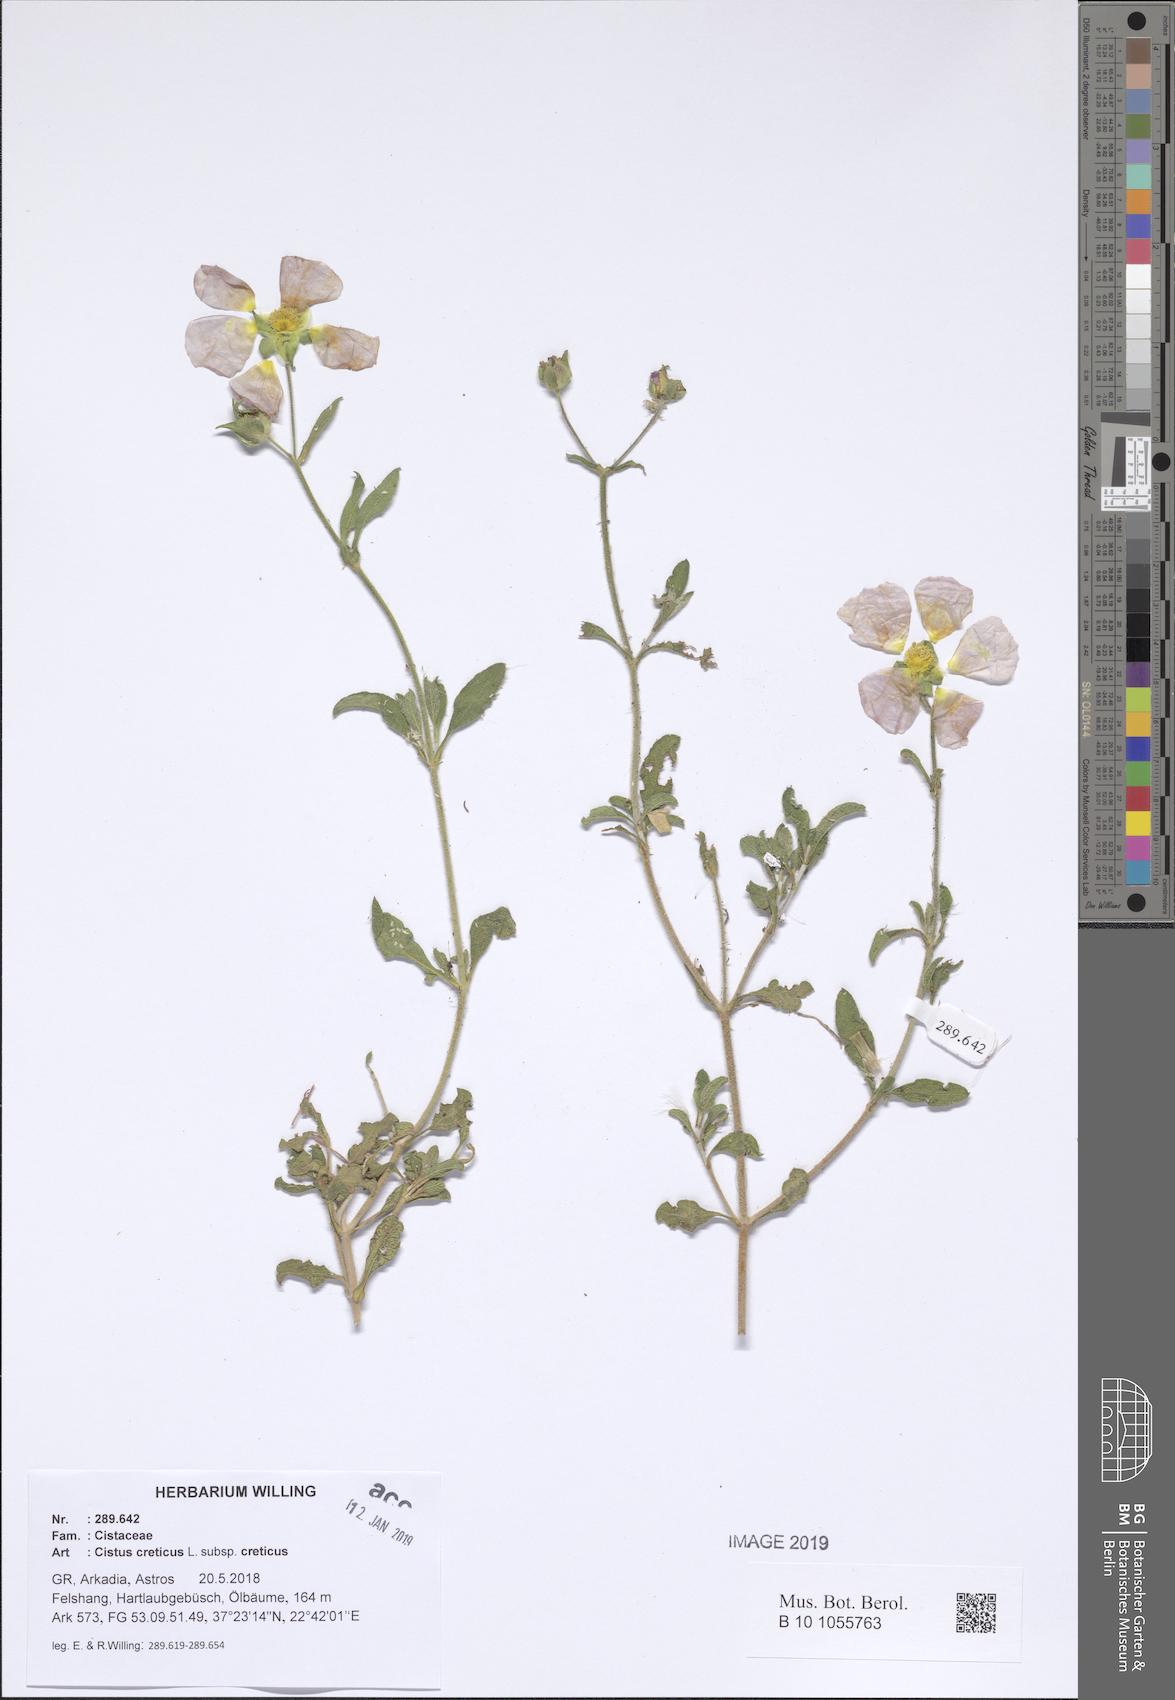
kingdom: Plantae
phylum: Tracheophyta
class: Magnoliopsida
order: Malvales
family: Cistaceae
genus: Cistus
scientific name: Cistus creticus
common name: Cretan rockrose
